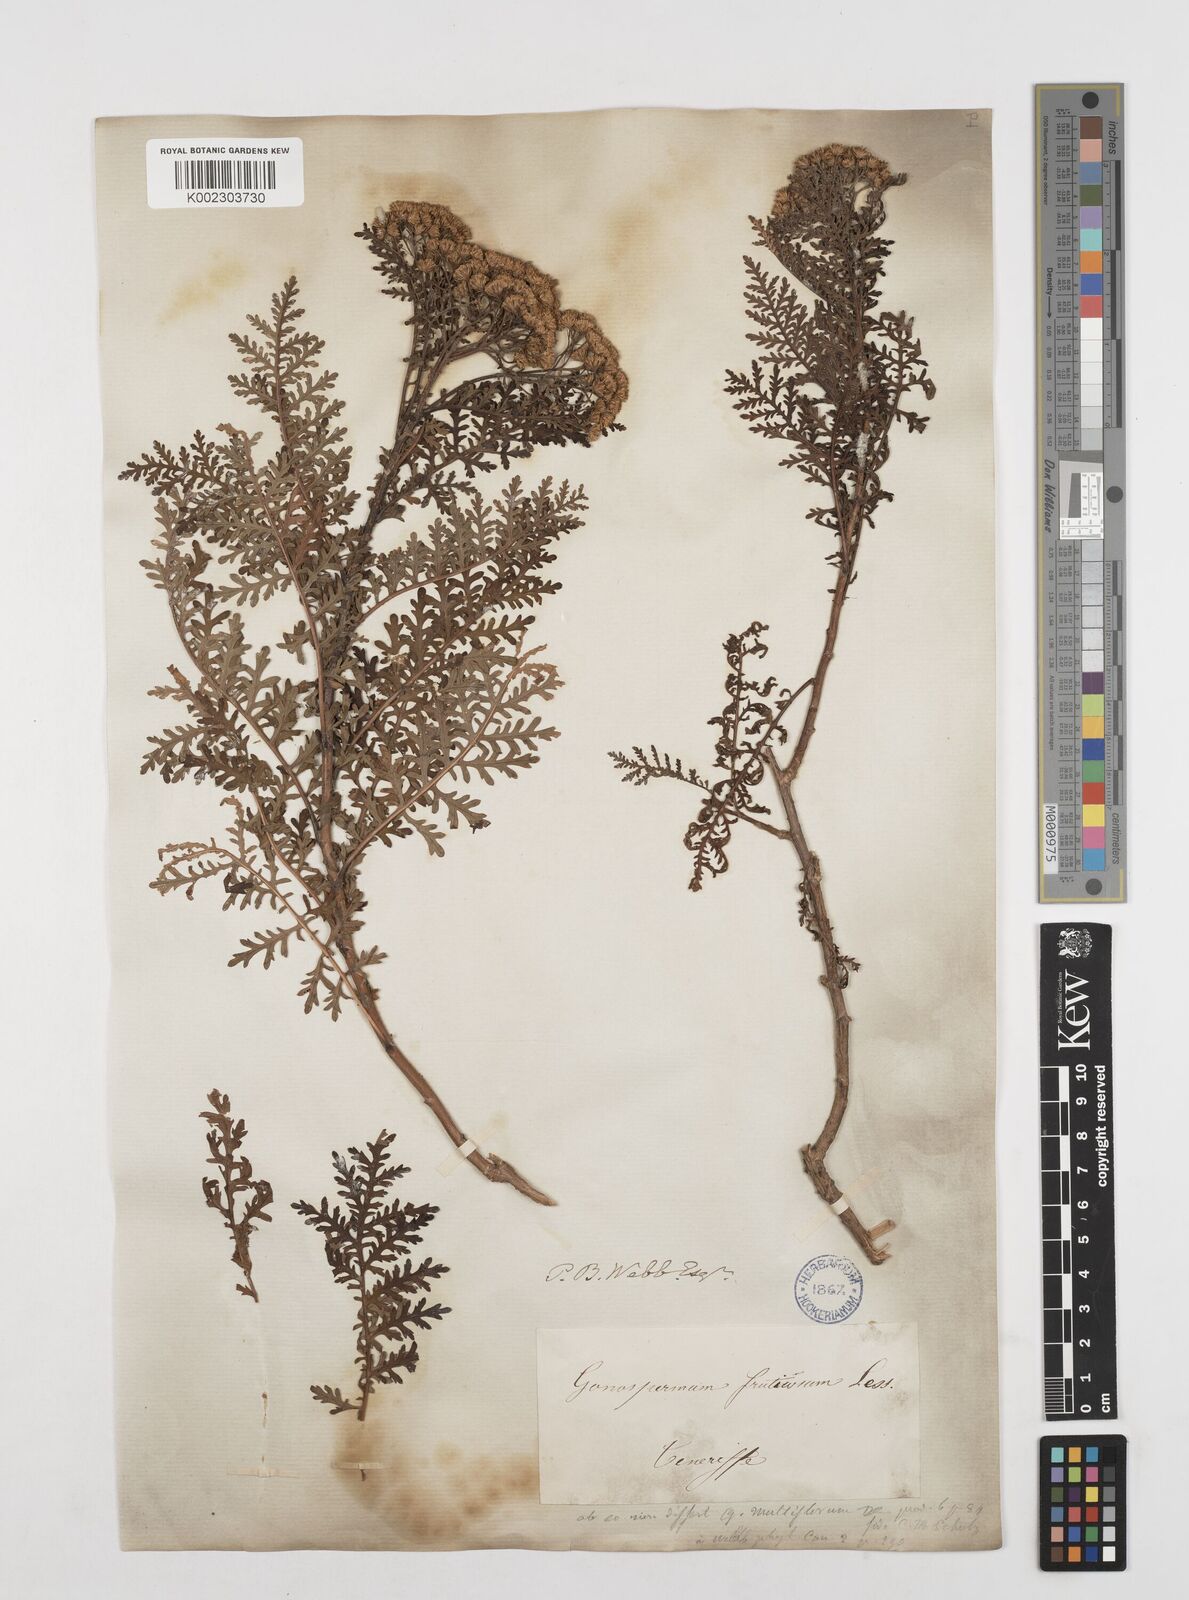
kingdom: Plantae
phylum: Tracheophyta
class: Magnoliopsida
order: Asterales
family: Asteraceae
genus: Gonospermum
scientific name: Gonospermum fruticosum
